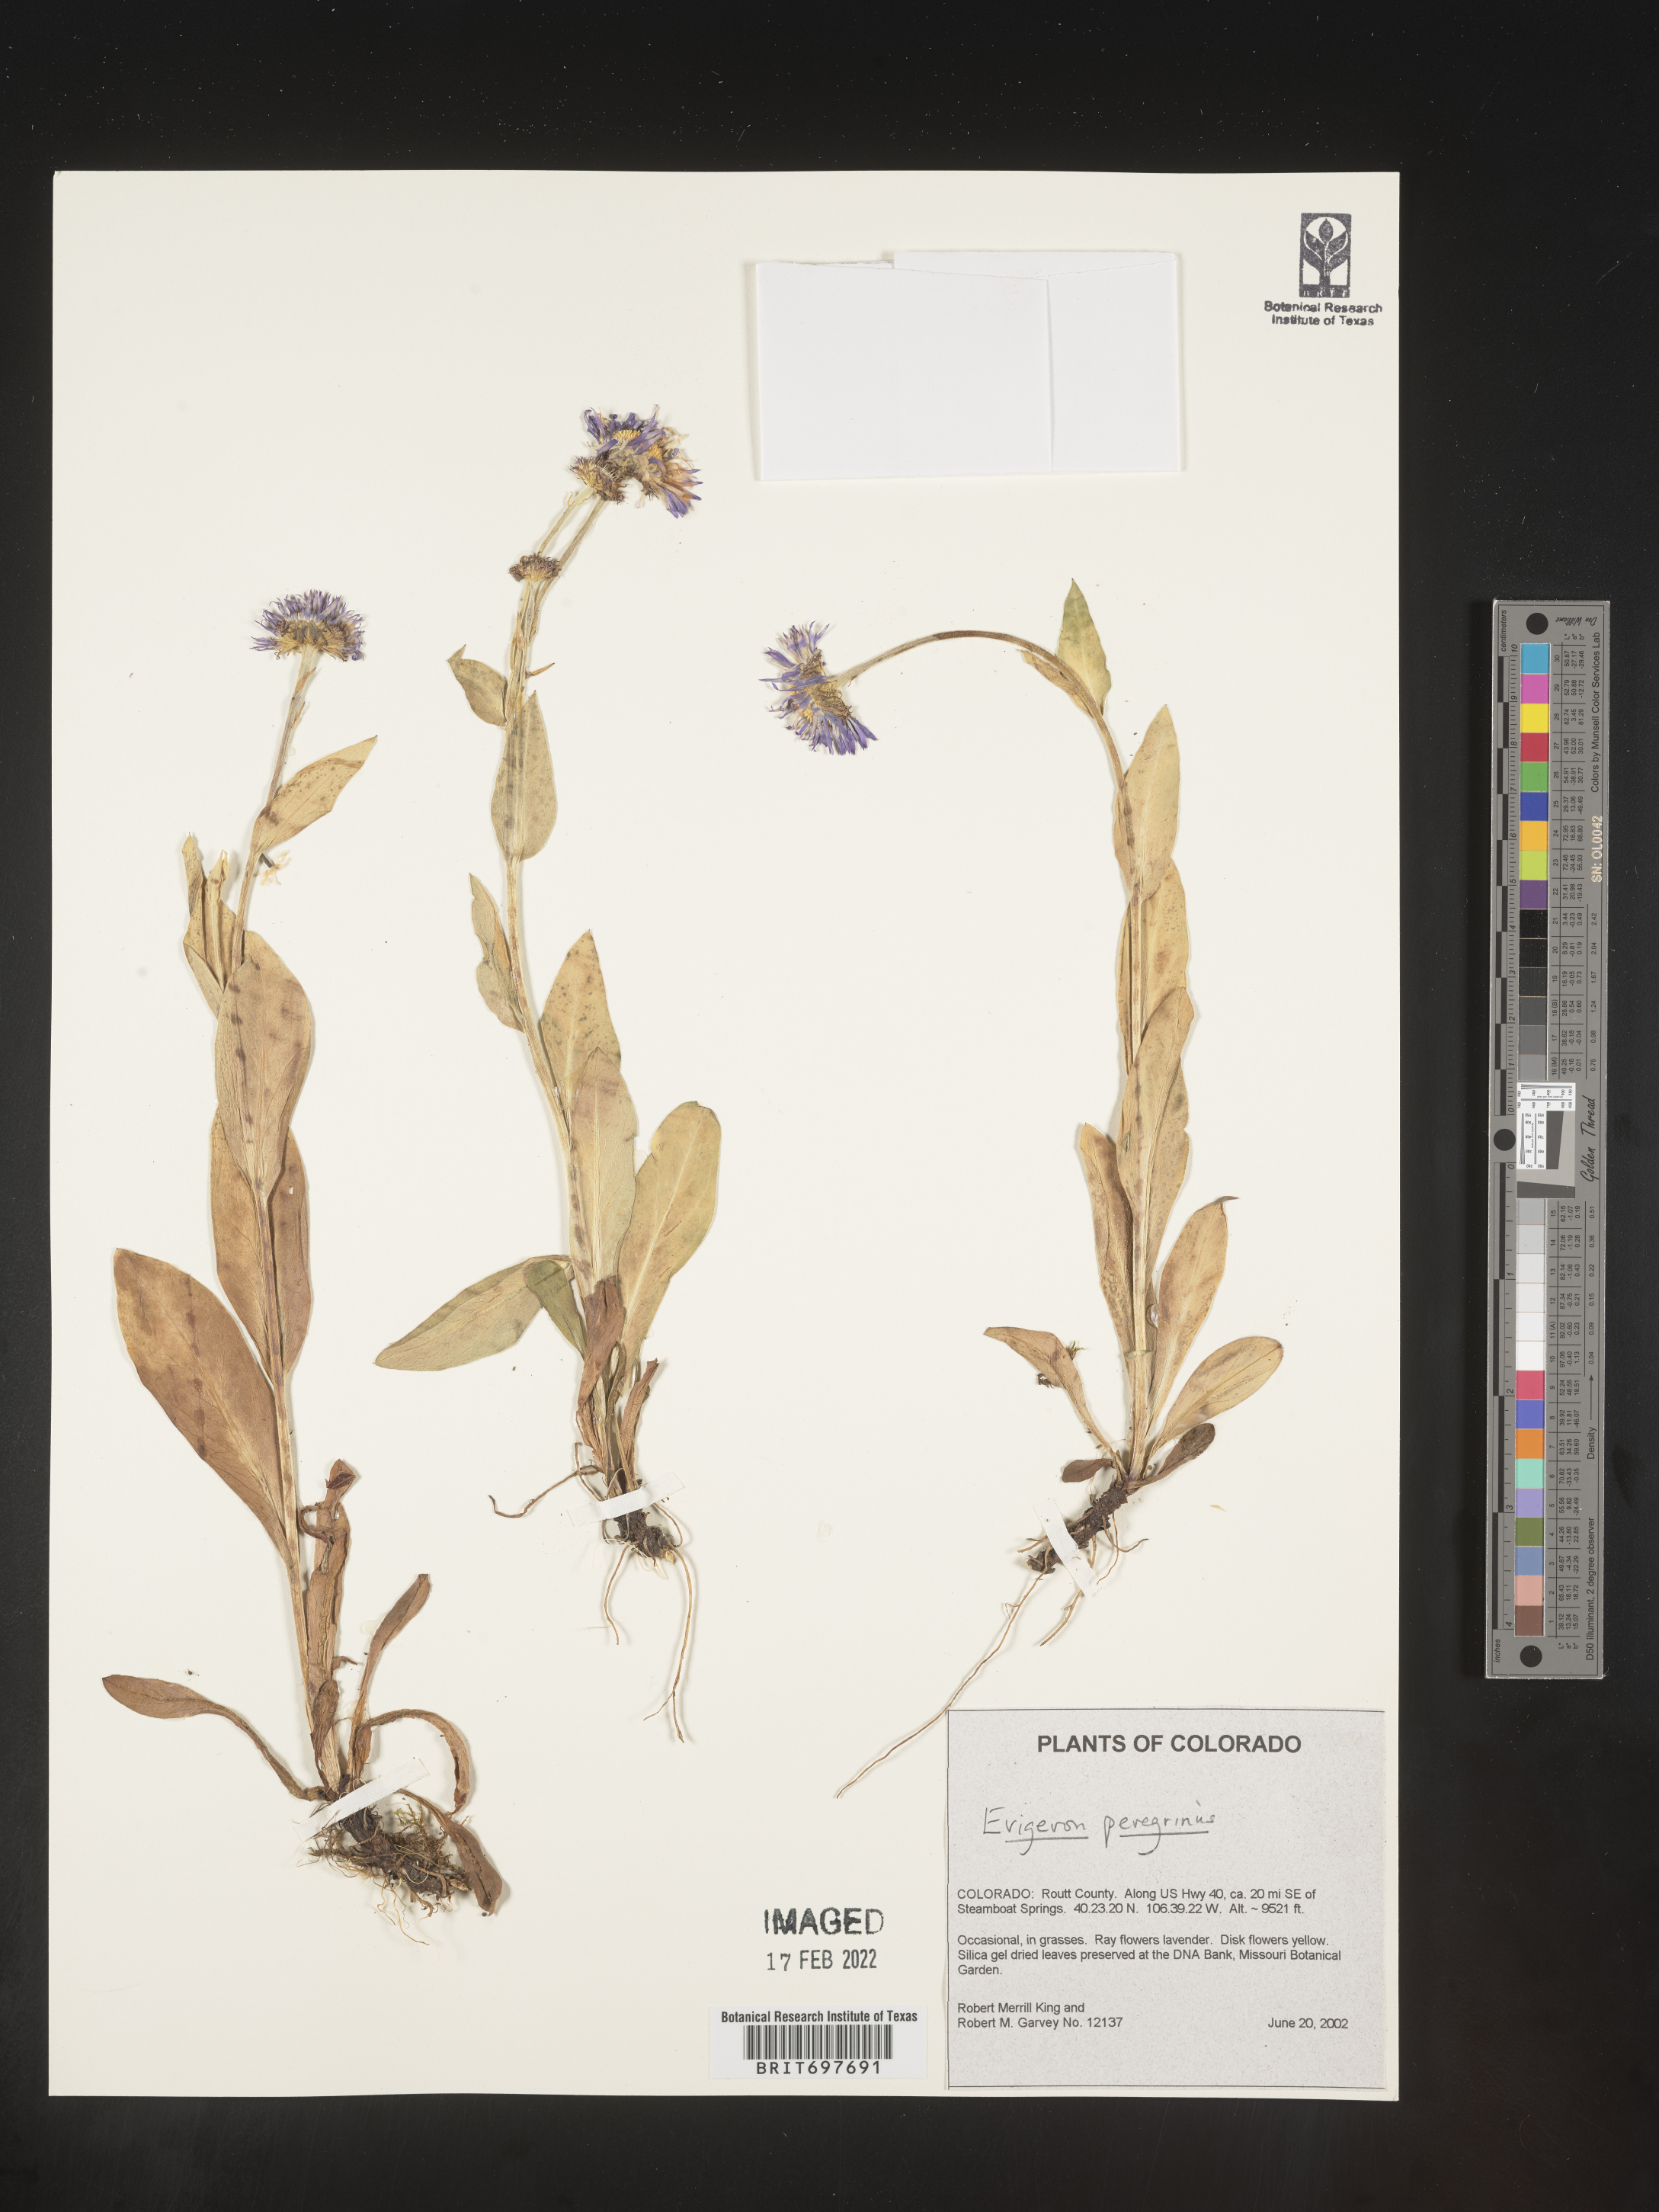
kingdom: Plantae
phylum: Tracheophyta
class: Magnoliopsida
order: Asterales
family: Asteraceae
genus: Erigeron
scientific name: Erigeron glacialis
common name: Subalpine fleabane
